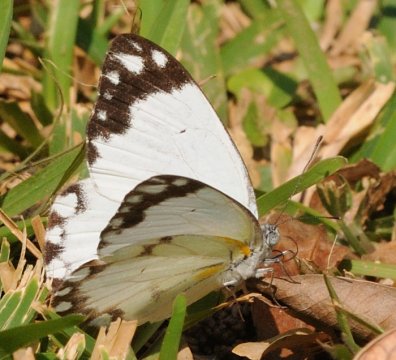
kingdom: Animalia
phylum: Arthropoda
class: Insecta
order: Lepidoptera
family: Pieridae
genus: Belenois
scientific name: Belenois creona
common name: African Caper
